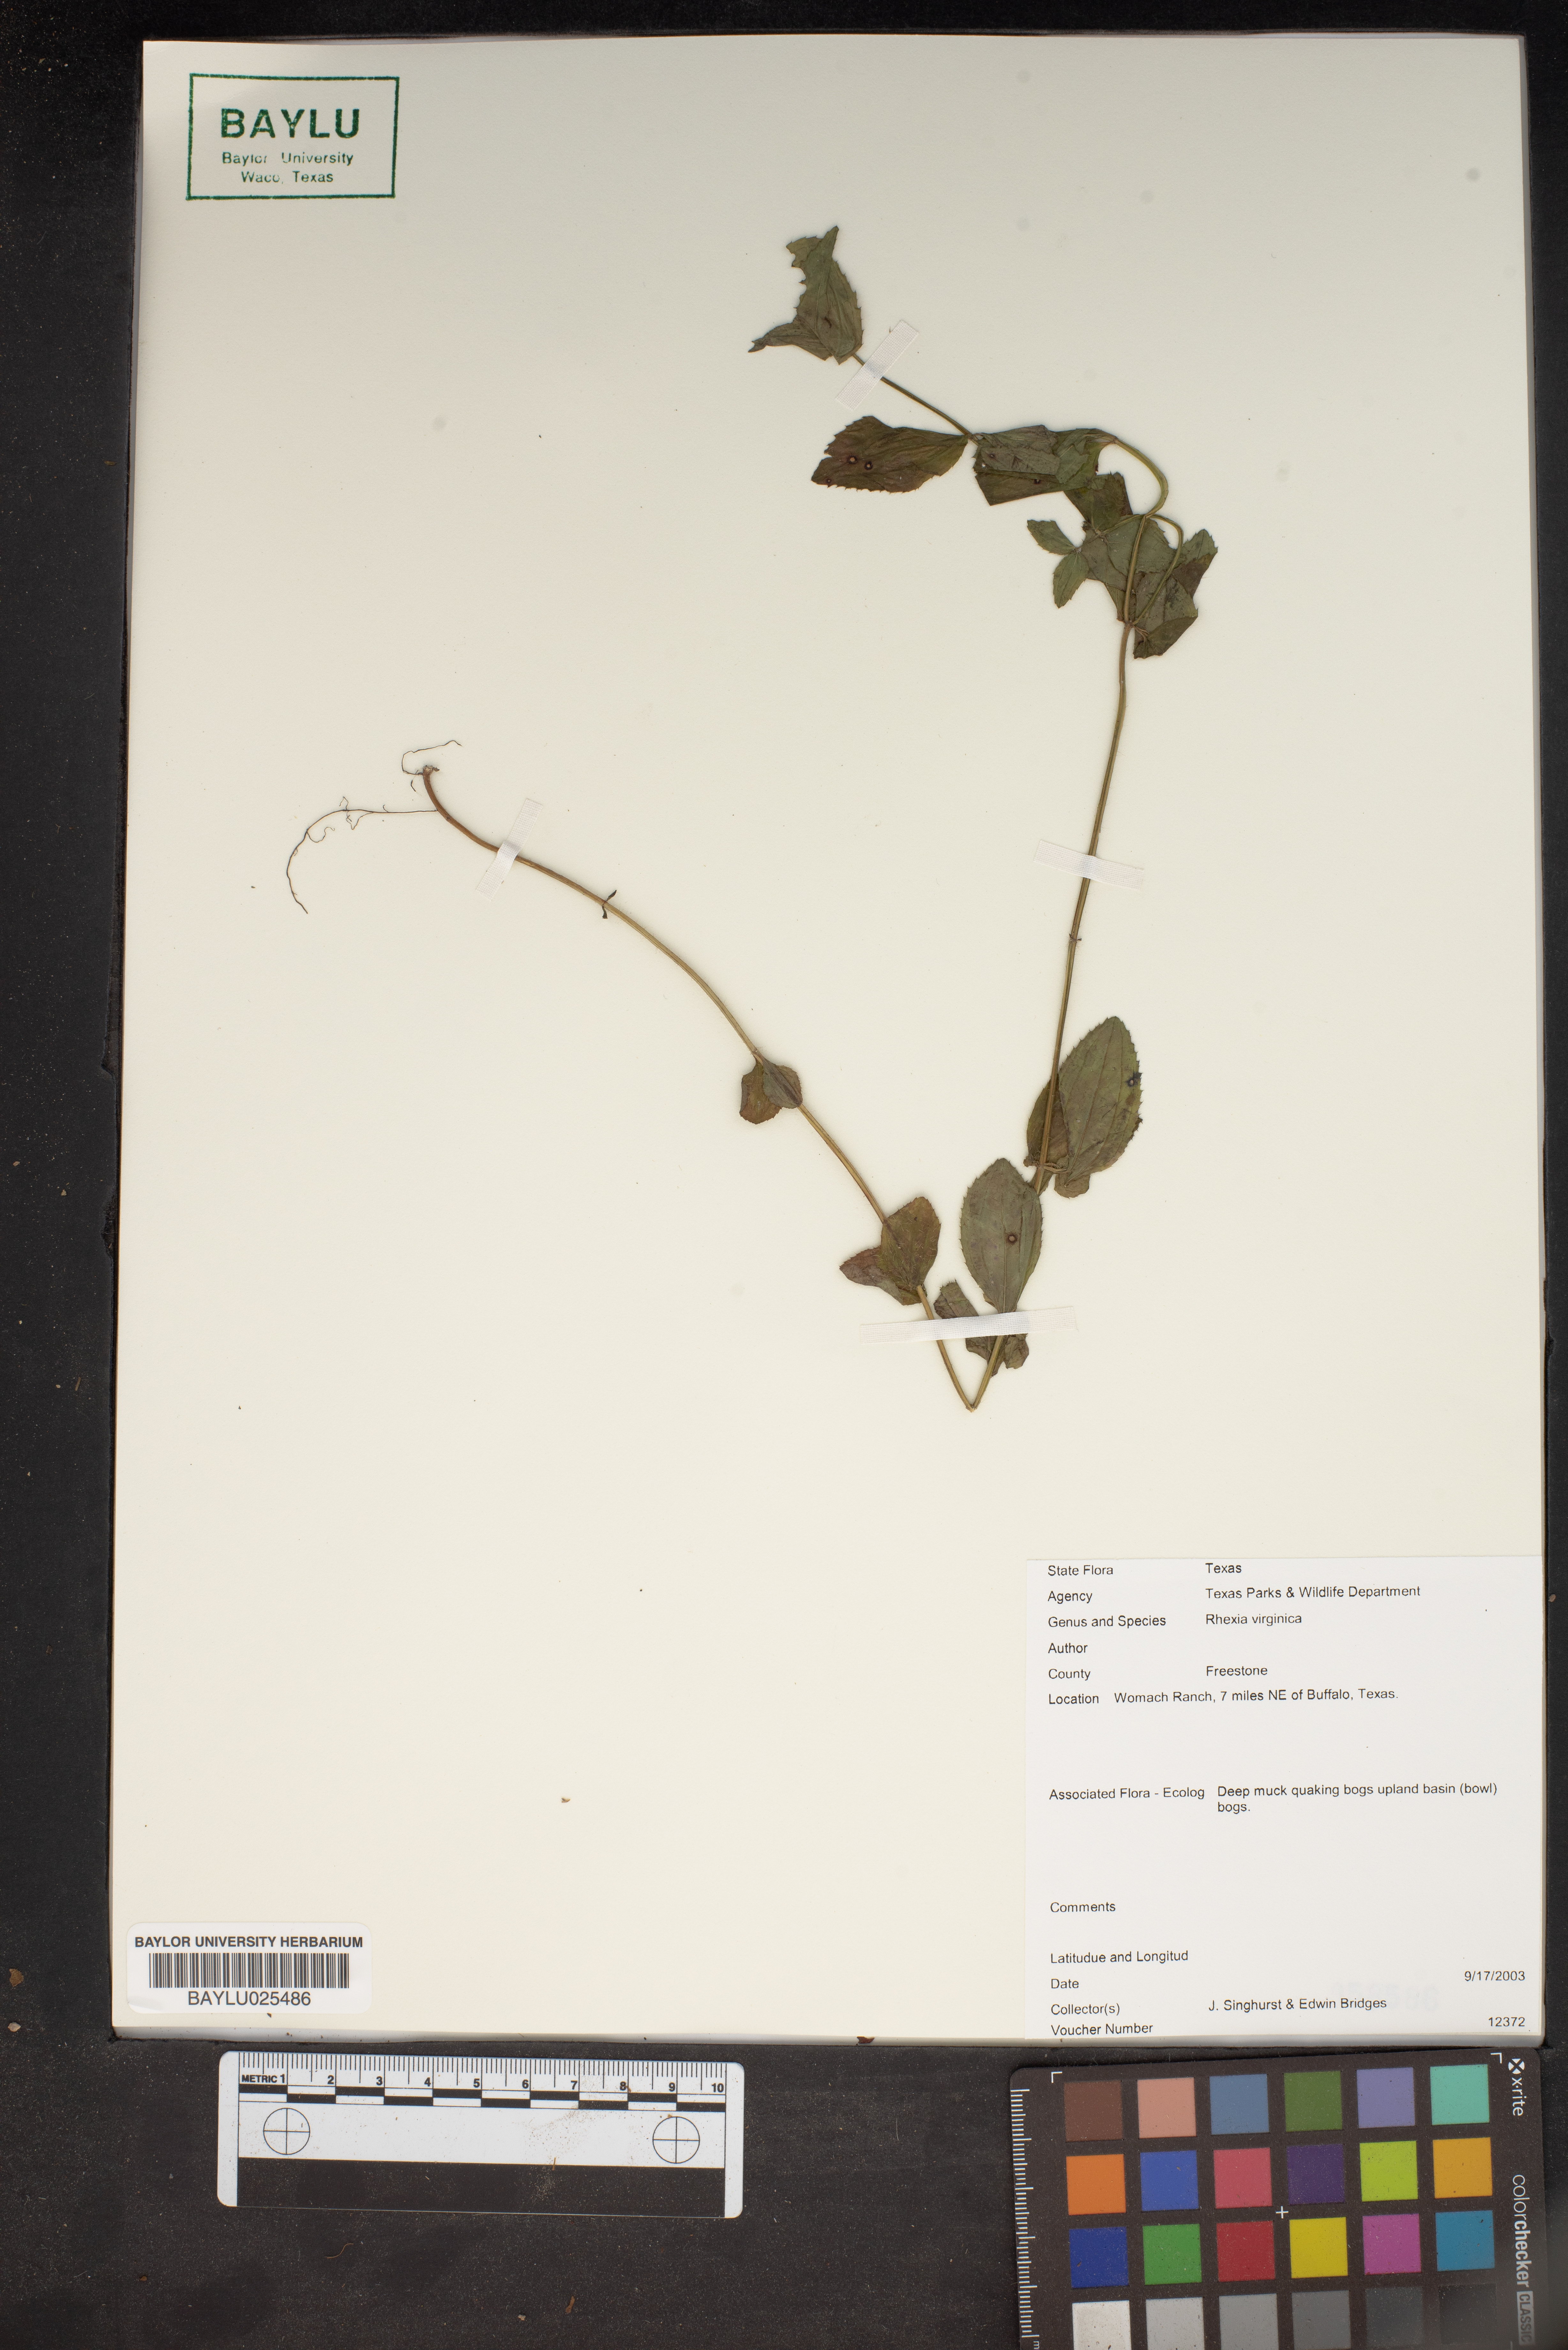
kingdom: Plantae
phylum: Tracheophyta
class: Magnoliopsida
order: Myrtales
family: Melastomataceae
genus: Rhexia
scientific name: Rhexia virginica
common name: Common meadow beauty
